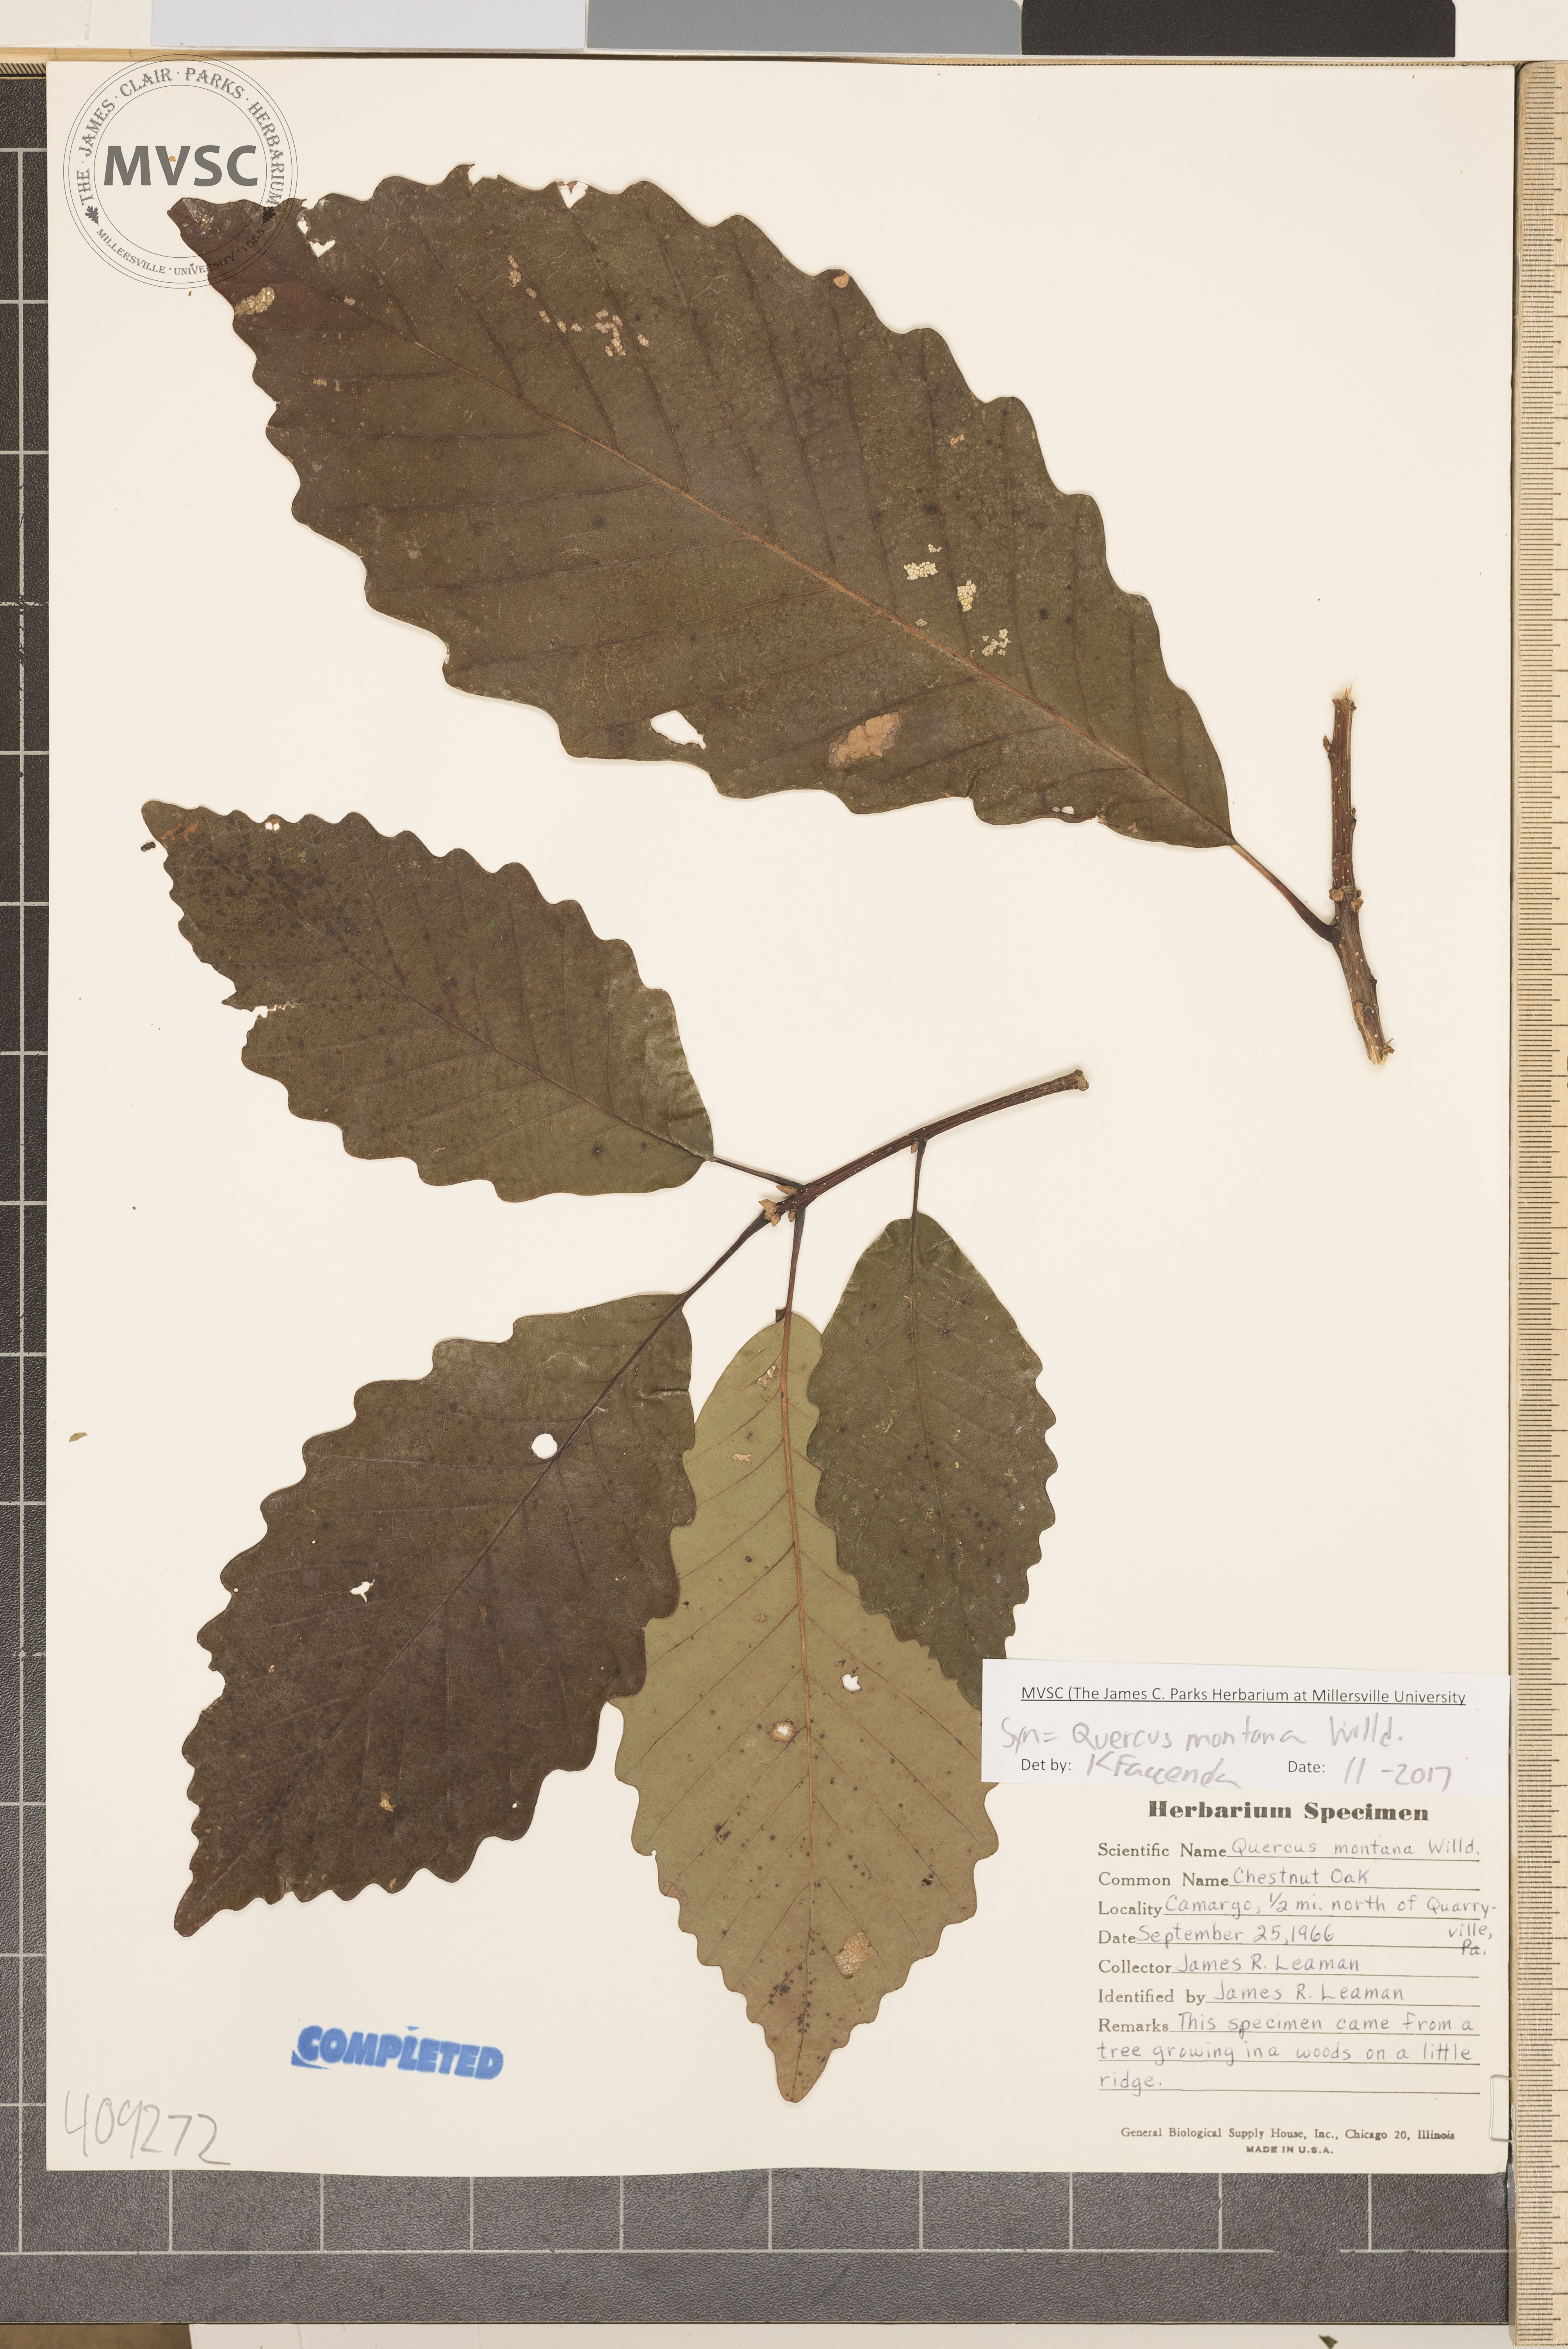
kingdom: Plantae
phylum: Tracheophyta
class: Magnoliopsida
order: Fagales
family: Fagaceae
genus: Quercus
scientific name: Quercus montana
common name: Chestnut oak
